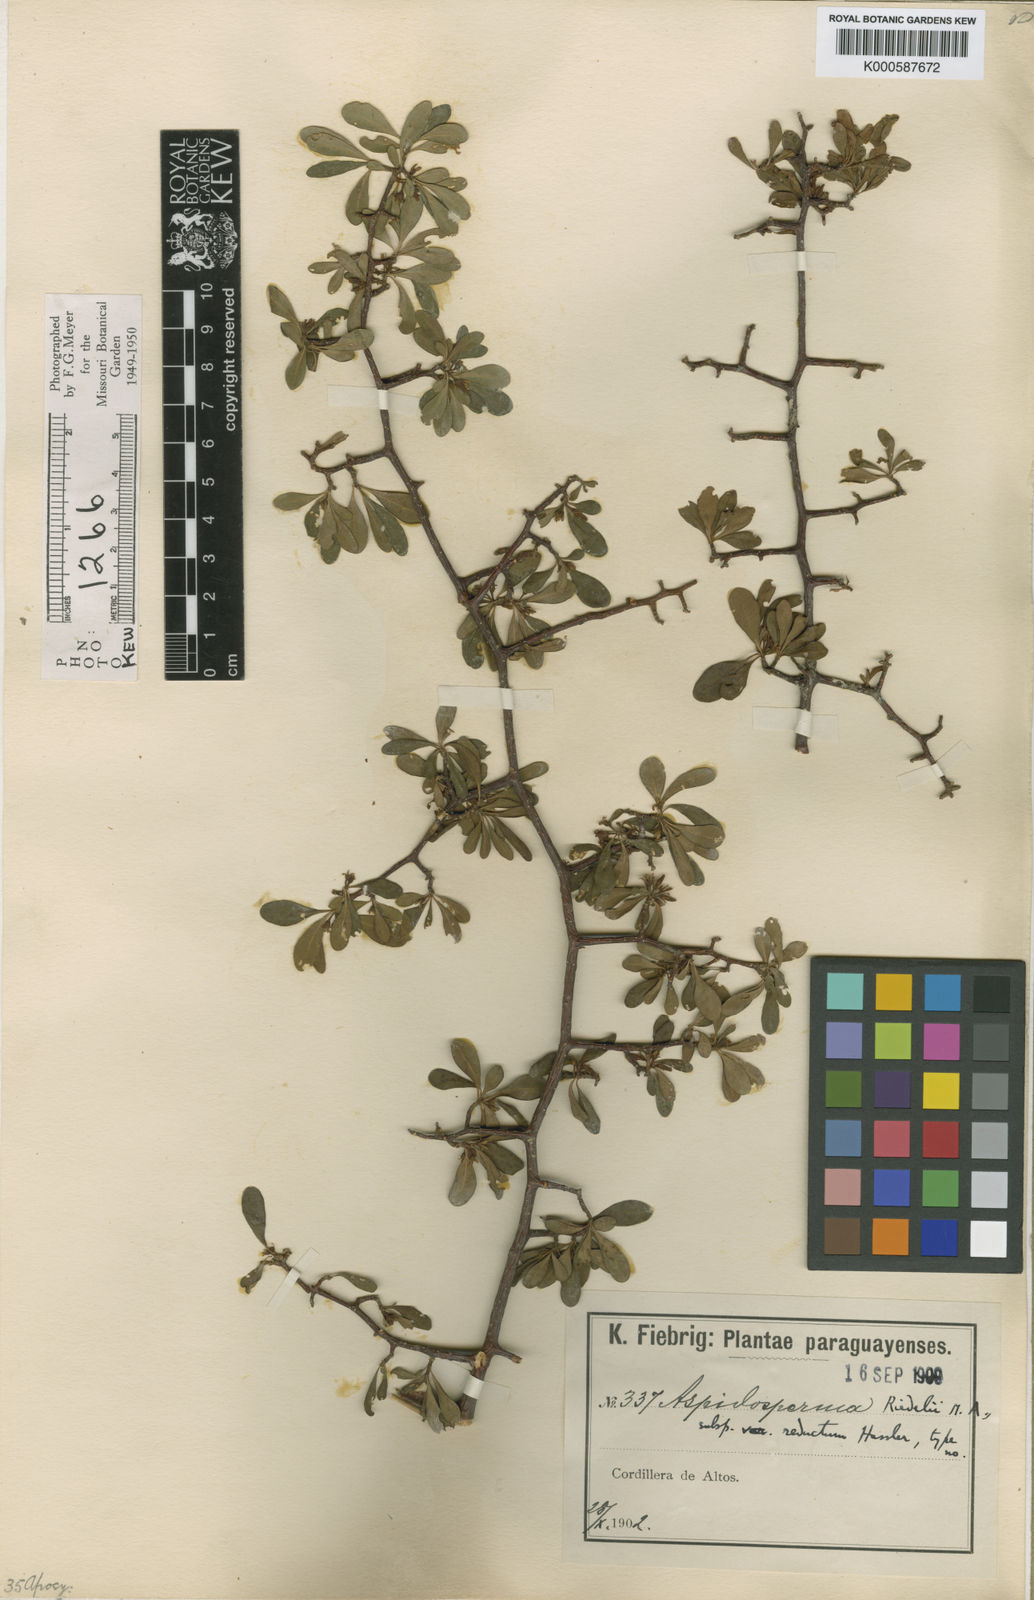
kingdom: Plantae
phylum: Tracheophyta
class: Magnoliopsida
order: Gentianales
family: Apocynaceae
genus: Aspidosperma
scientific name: Aspidosperma
